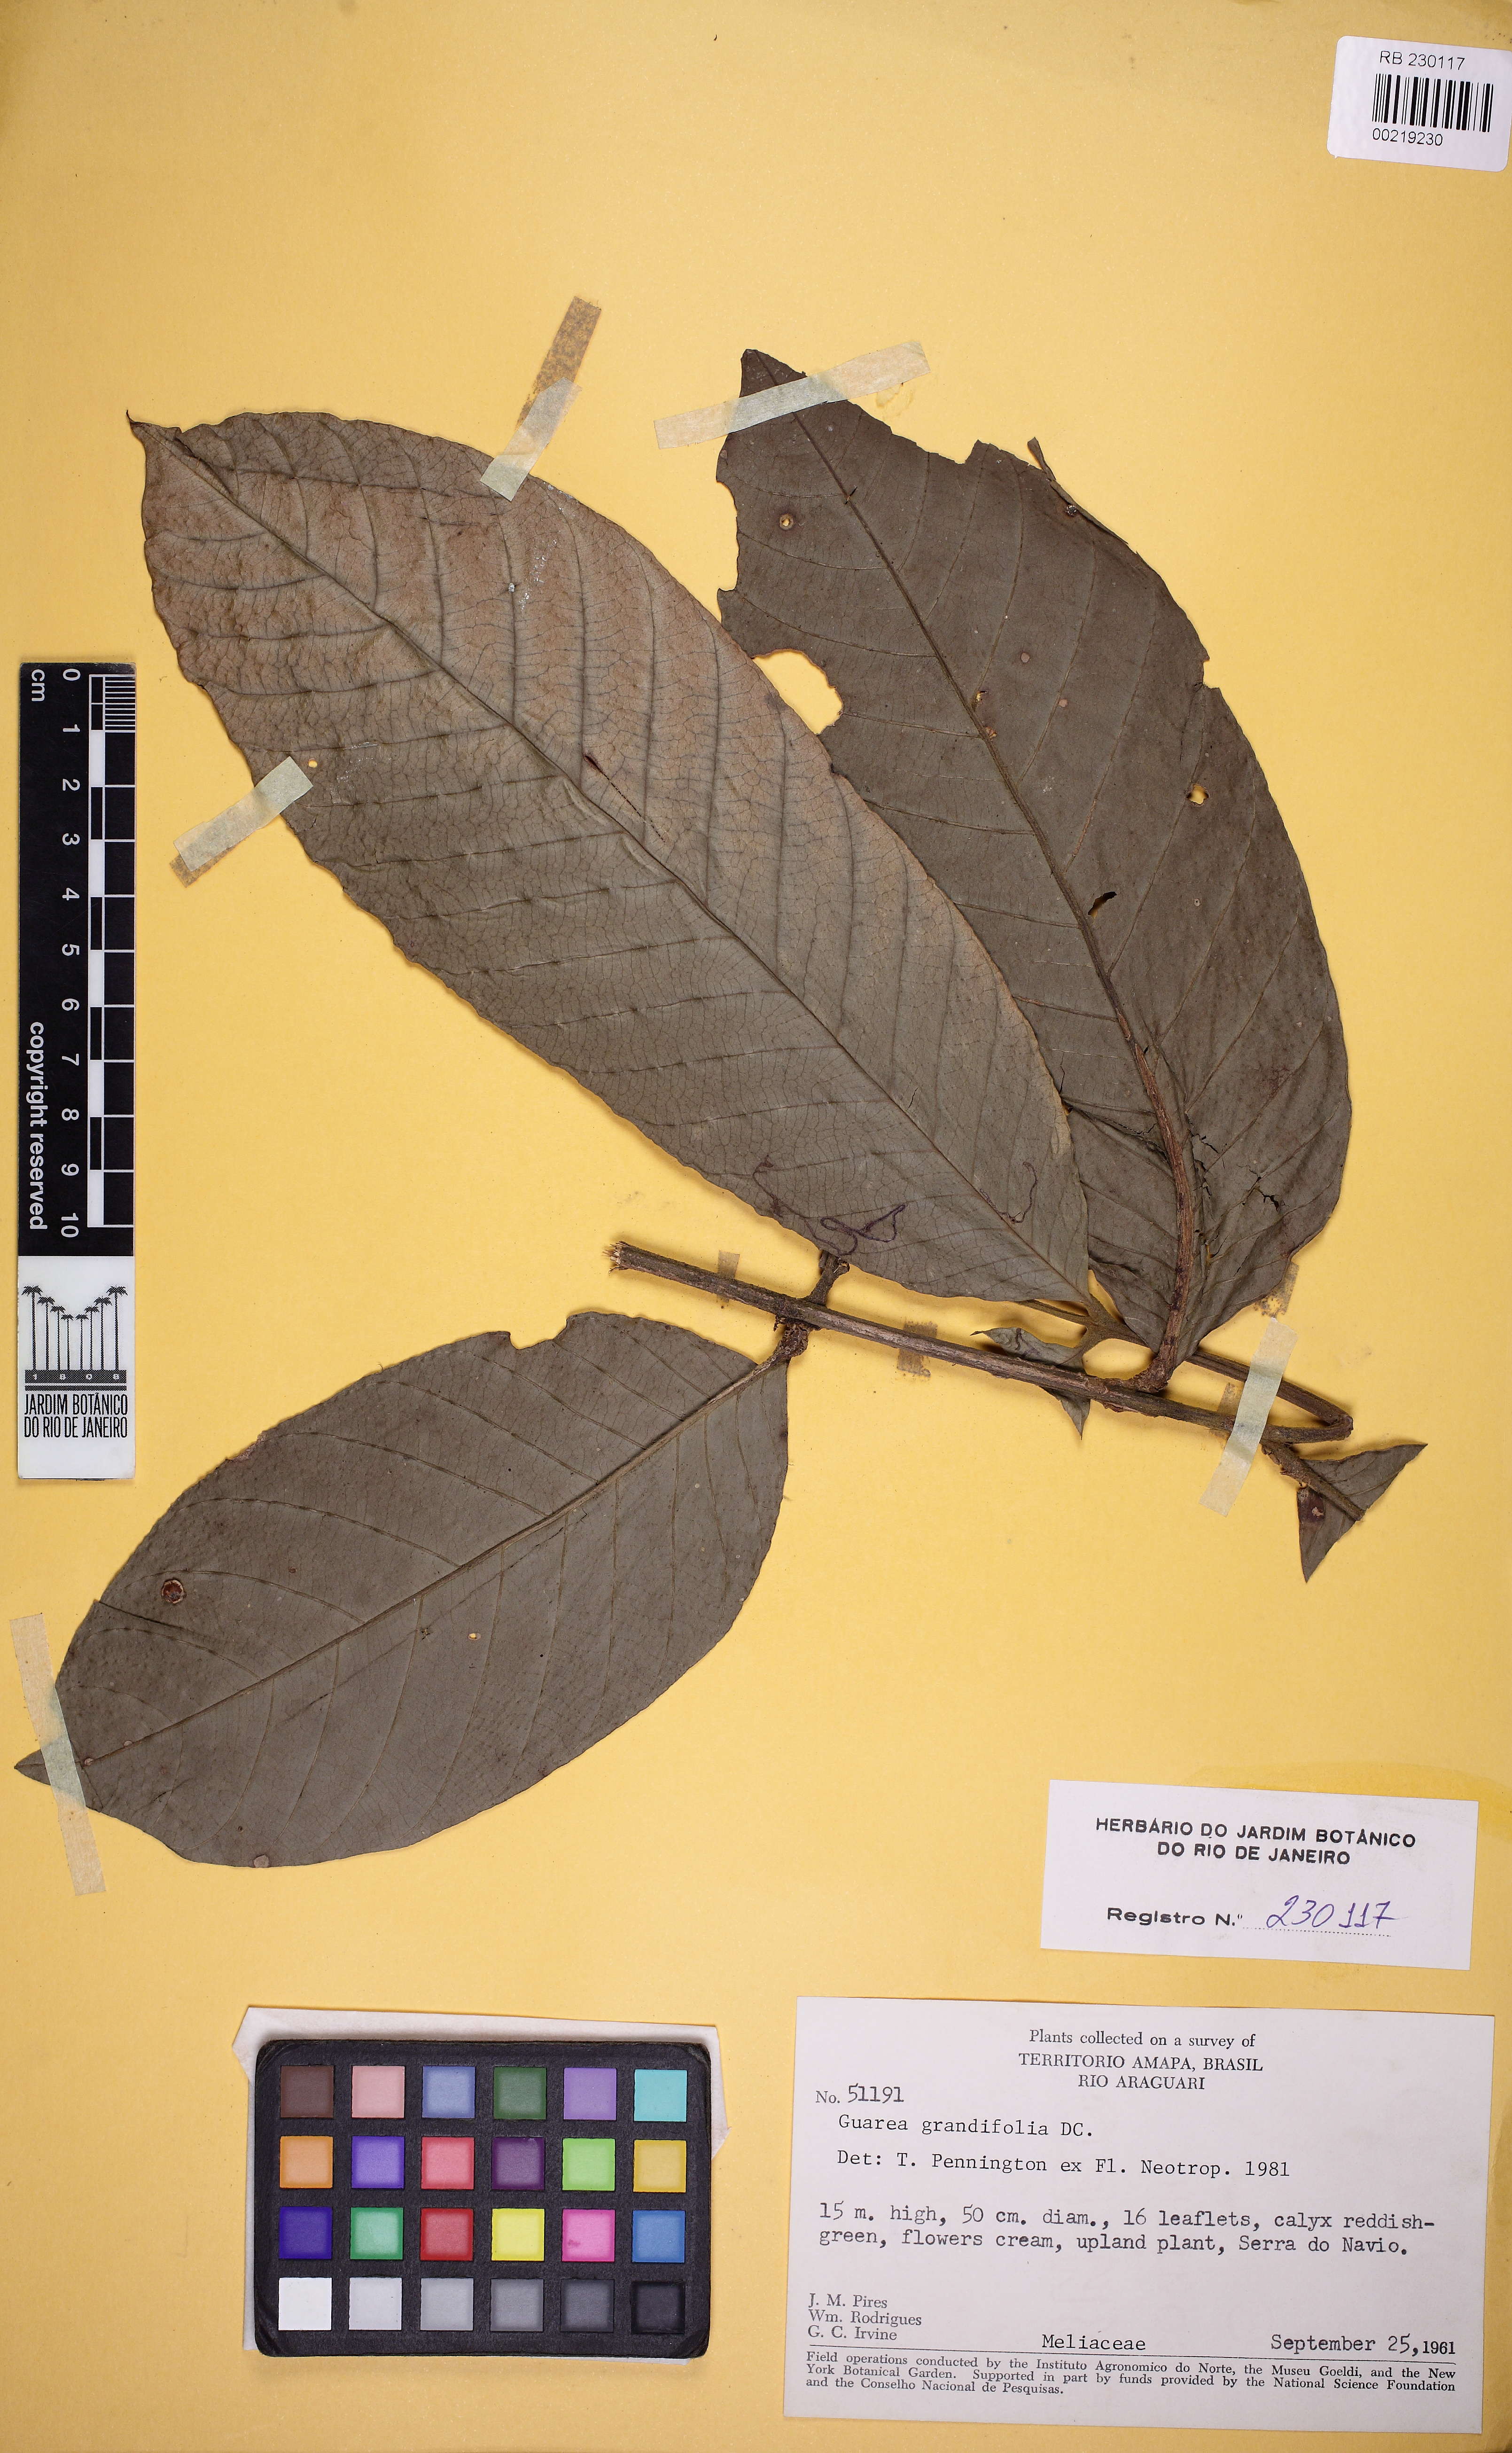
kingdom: Plantae
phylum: Tracheophyta
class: Magnoliopsida
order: Sapindales
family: Meliaceae
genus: Guarea
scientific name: Guarea guidonia
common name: American muskwood
